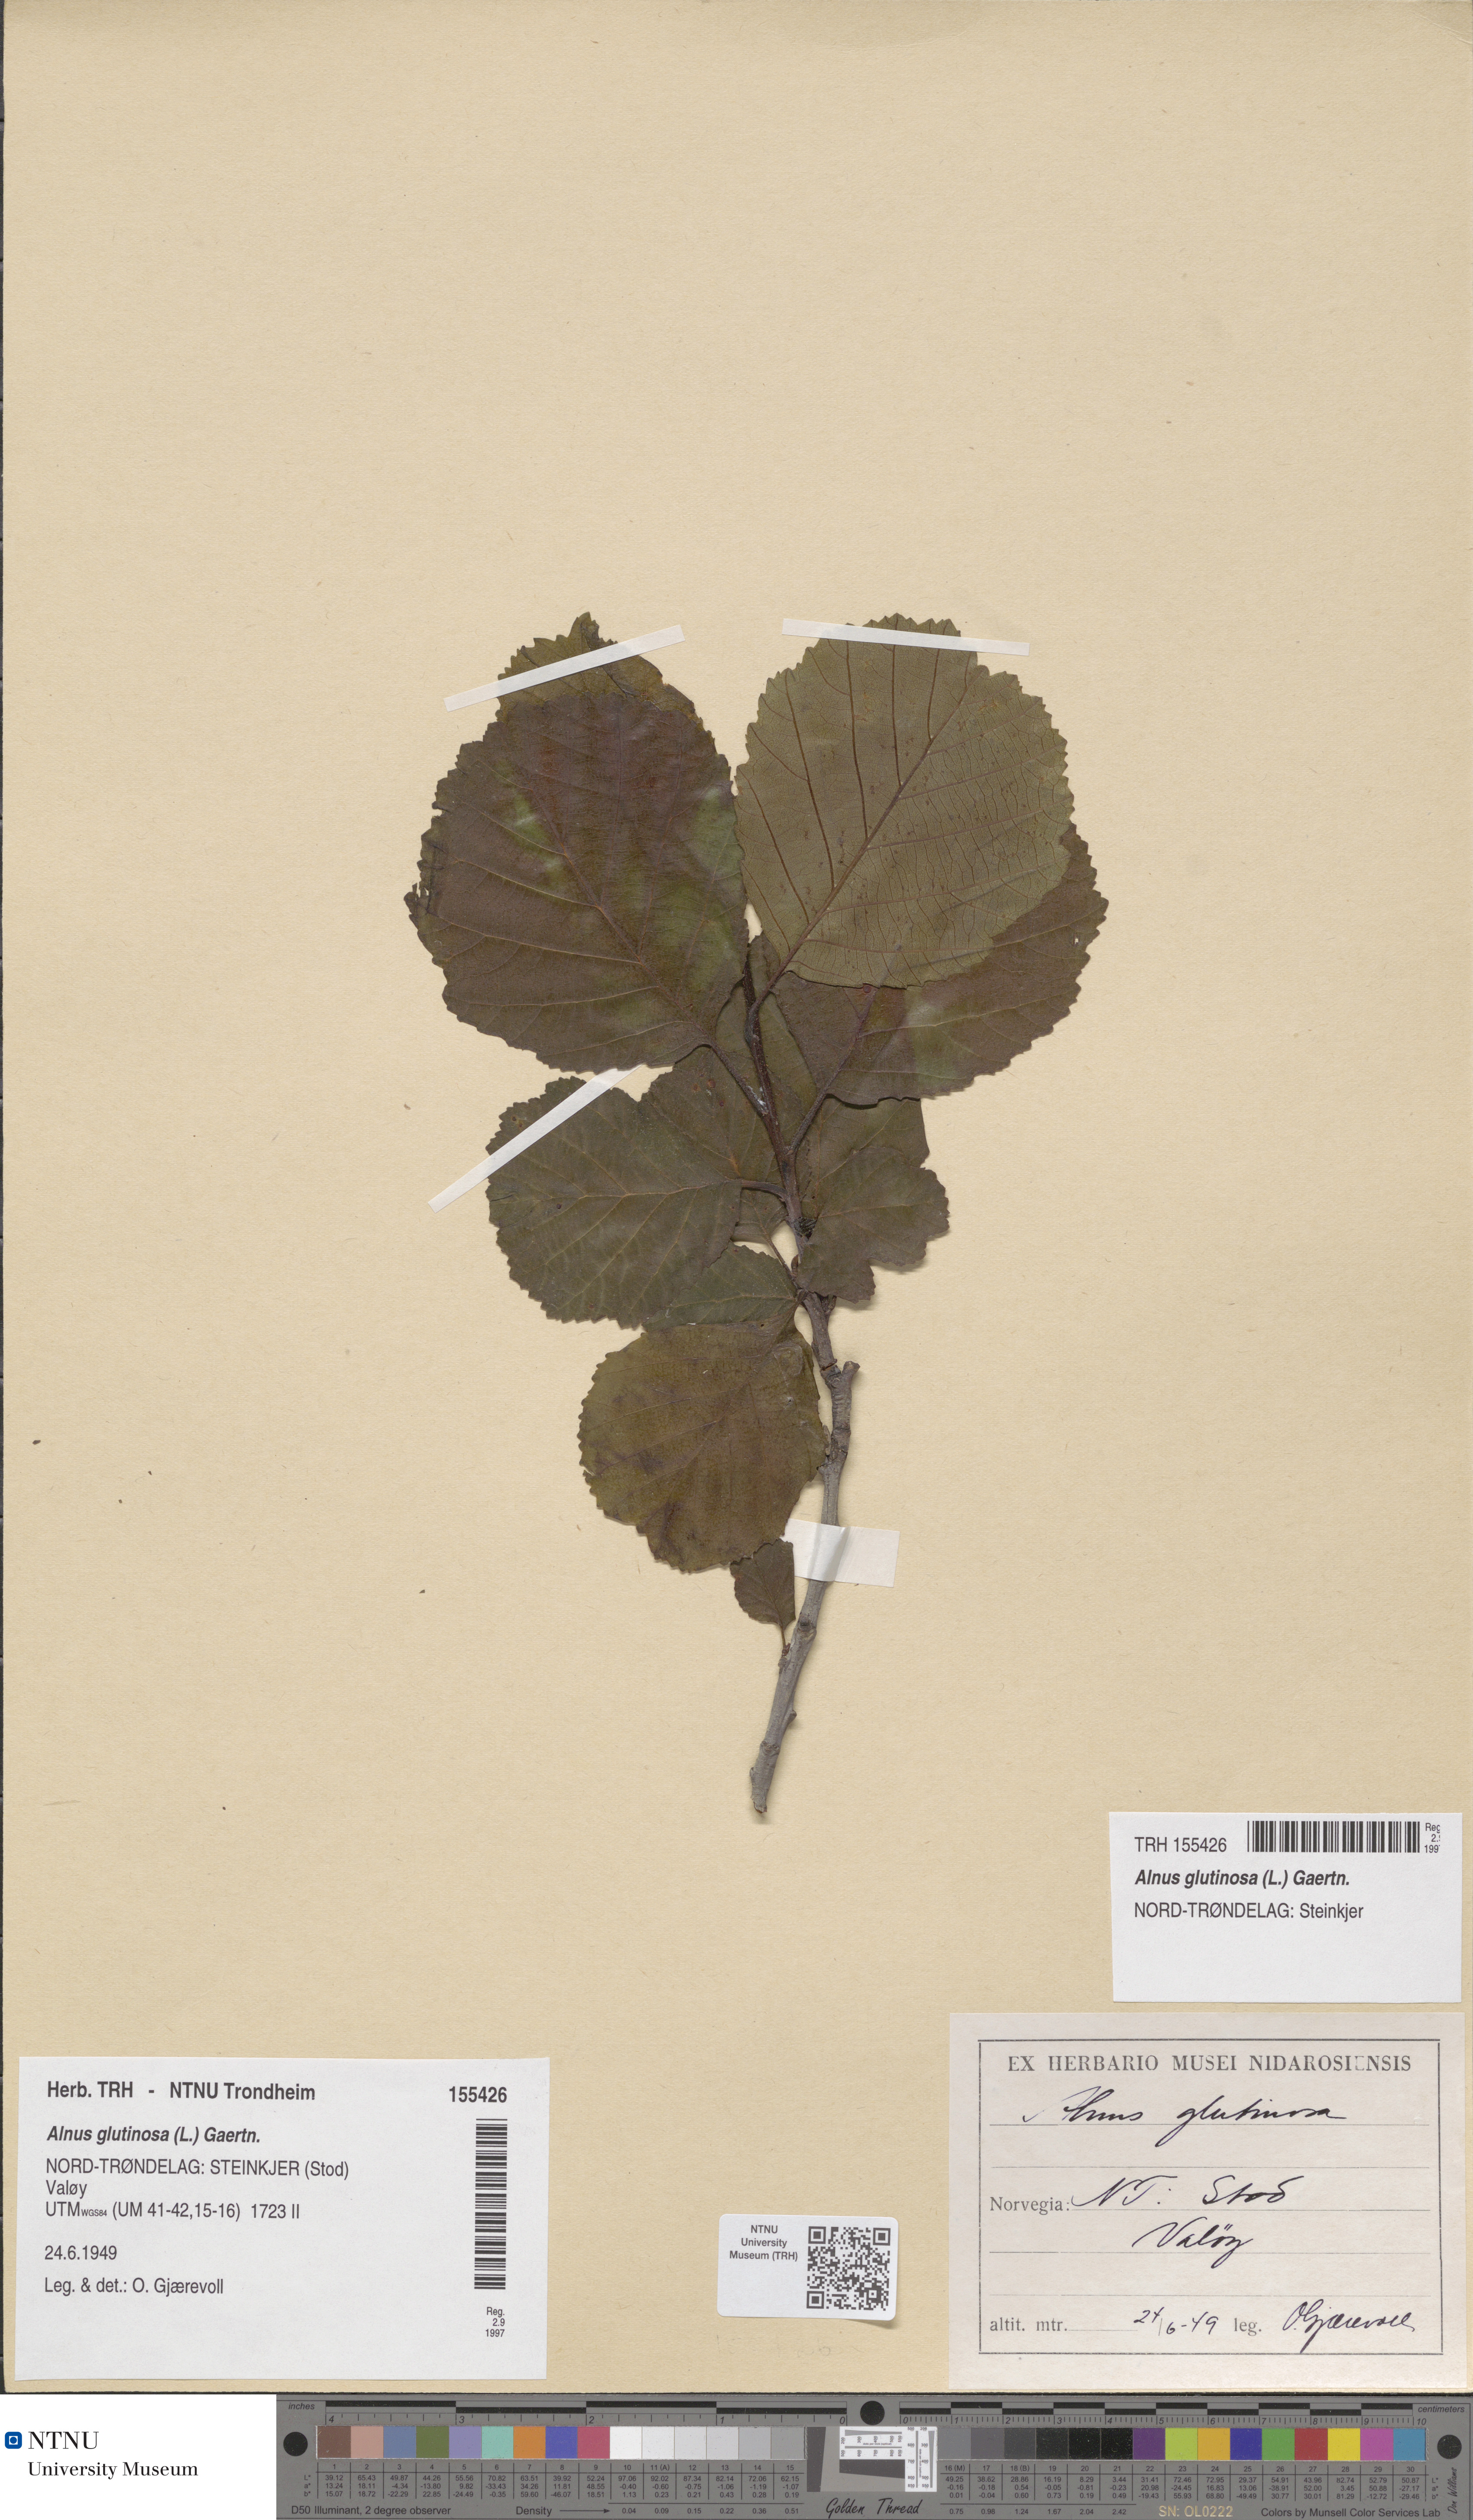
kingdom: Plantae
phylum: Tracheophyta
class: Magnoliopsida
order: Fagales
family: Betulaceae
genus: Alnus
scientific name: Alnus glutinosa
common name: Black alder
